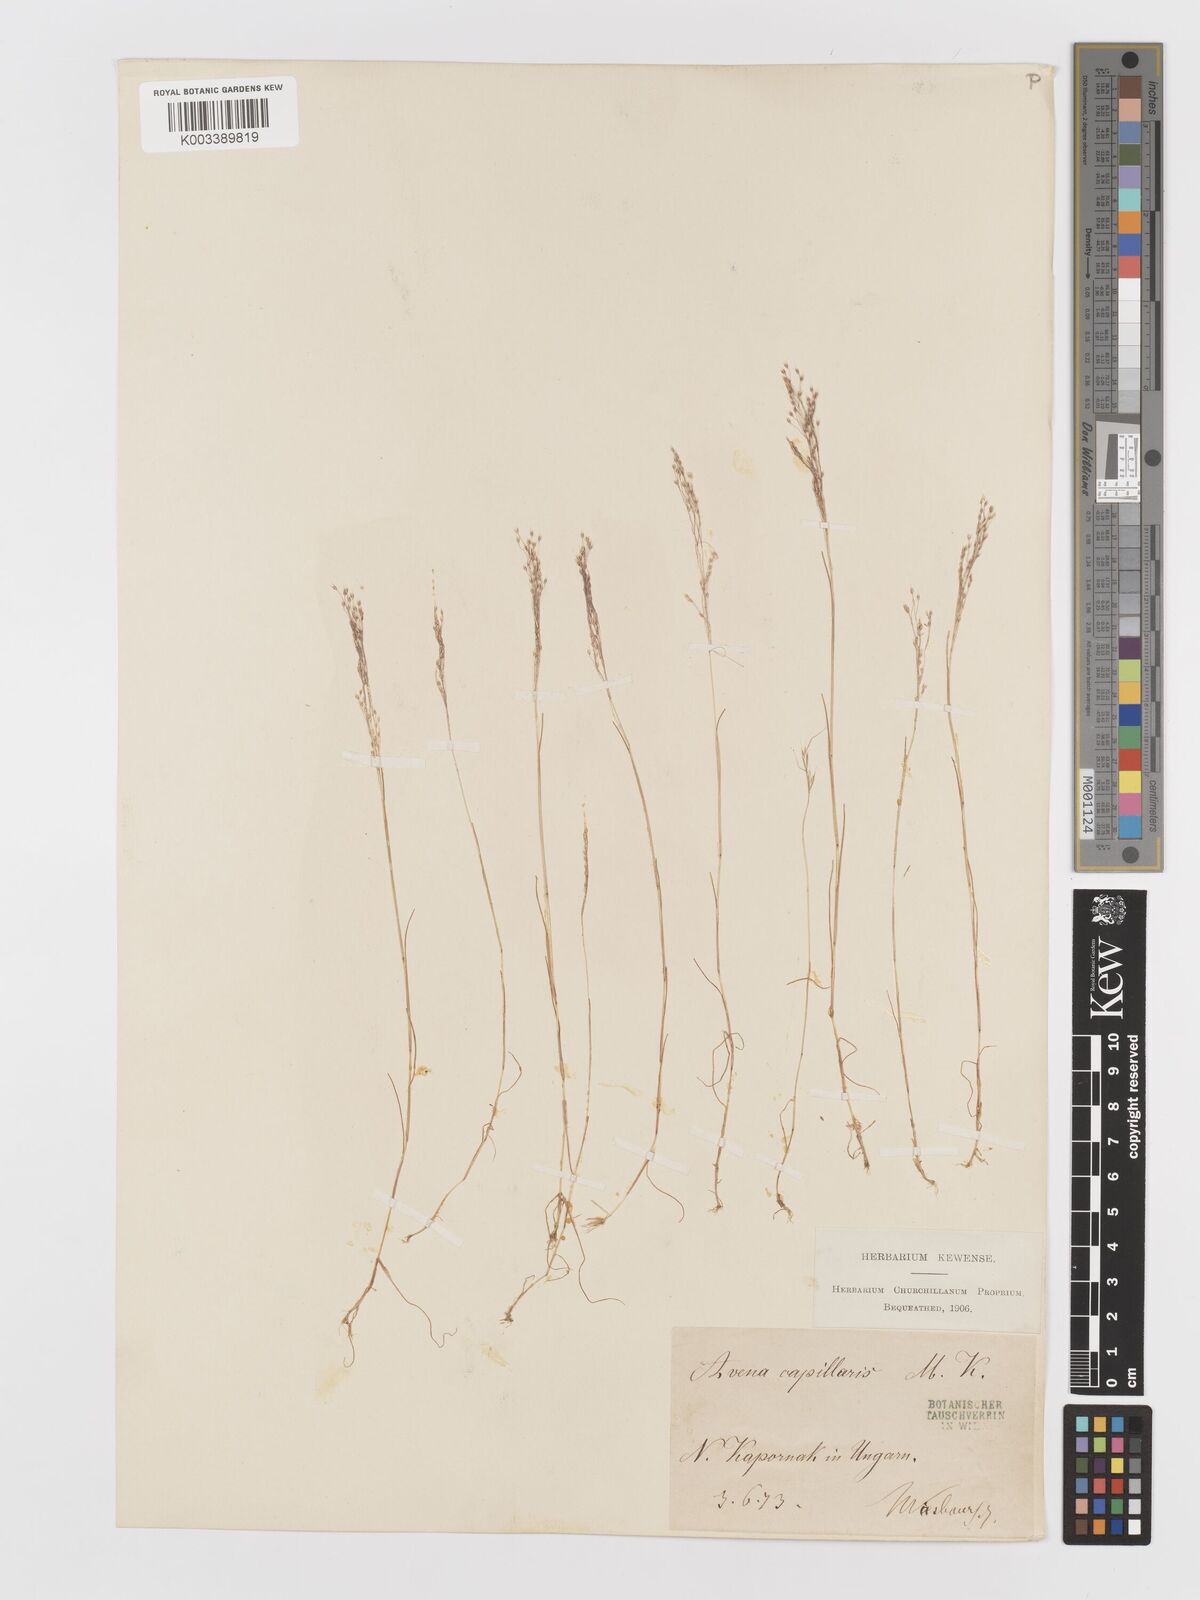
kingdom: Plantae
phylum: Tracheophyta
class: Liliopsida
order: Poales
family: Poaceae
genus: Aira
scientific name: Aira elegans
